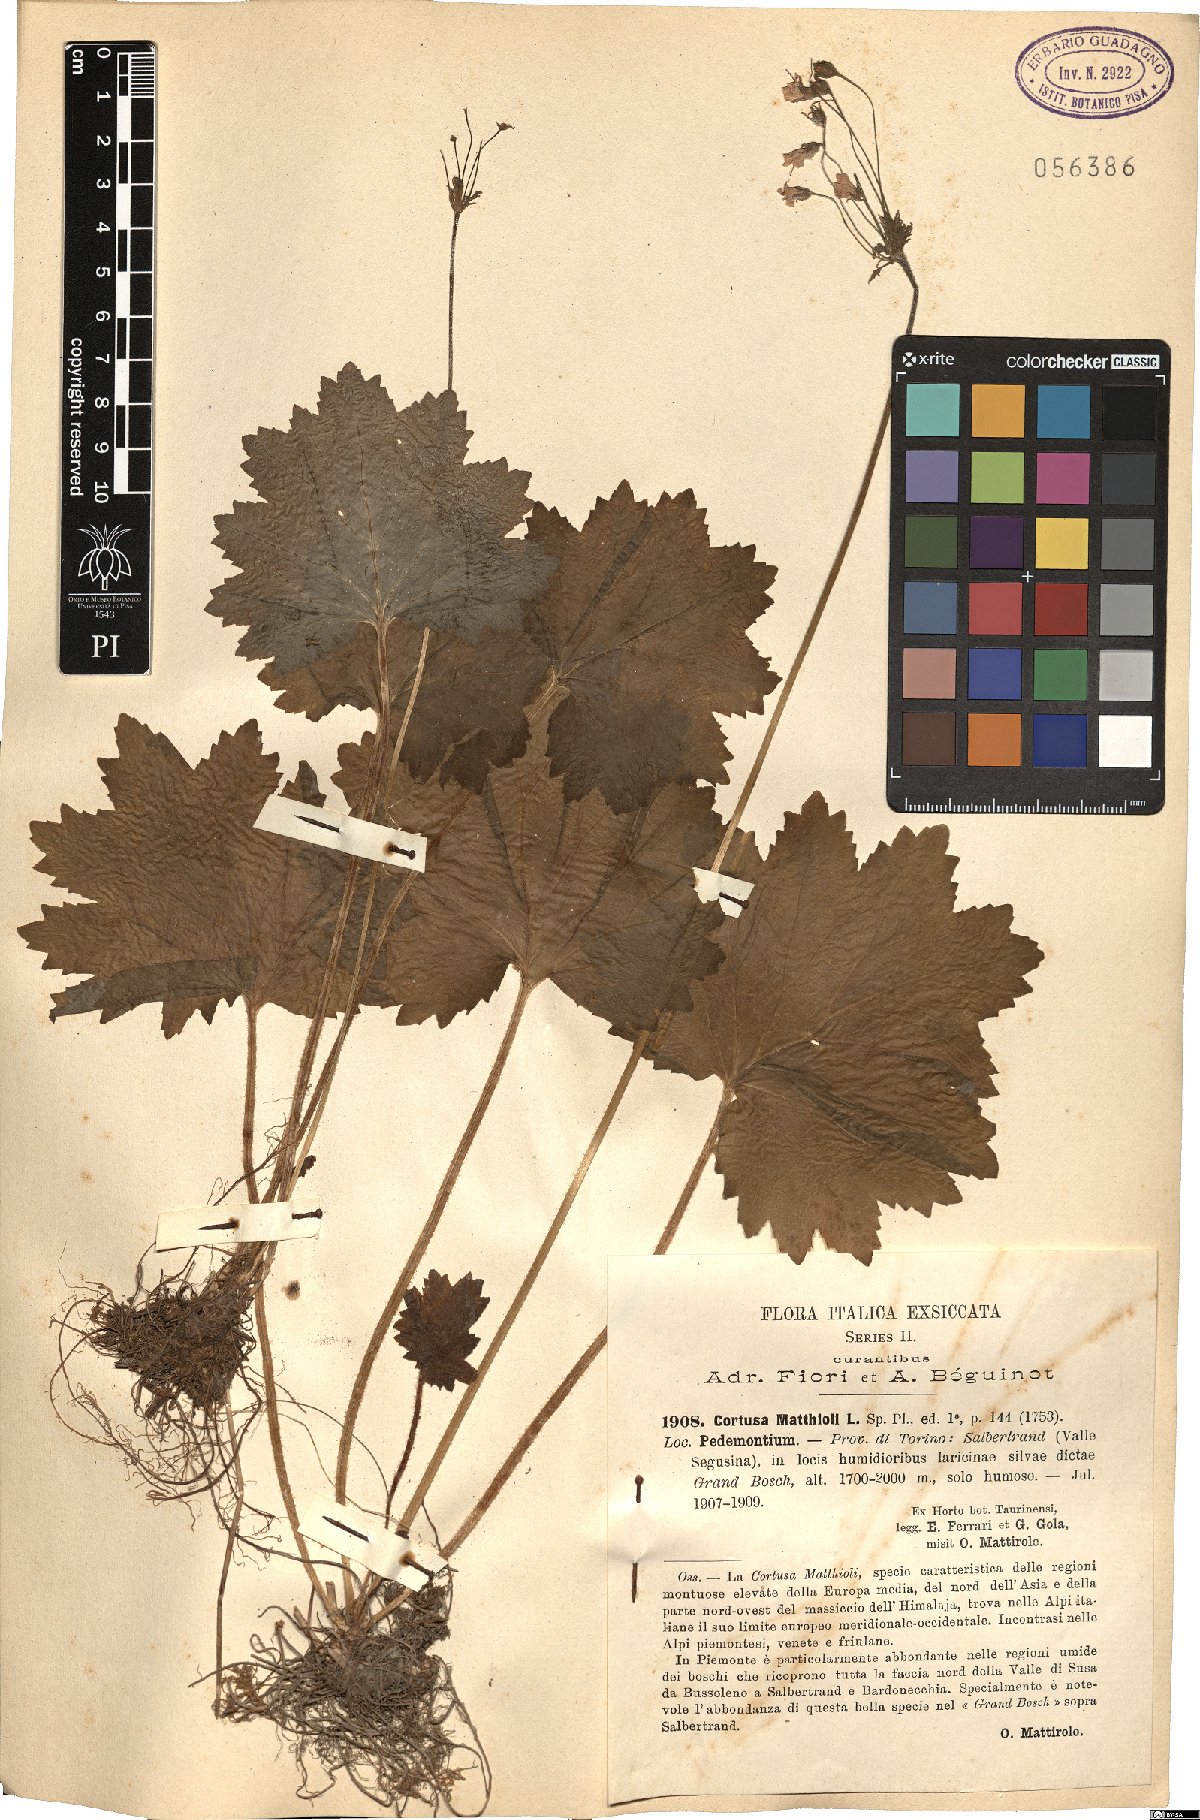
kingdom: Plantae
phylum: Tracheophyta
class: Magnoliopsida
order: Ericales
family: Primulaceae
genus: Primula
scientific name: Primula matthioli
